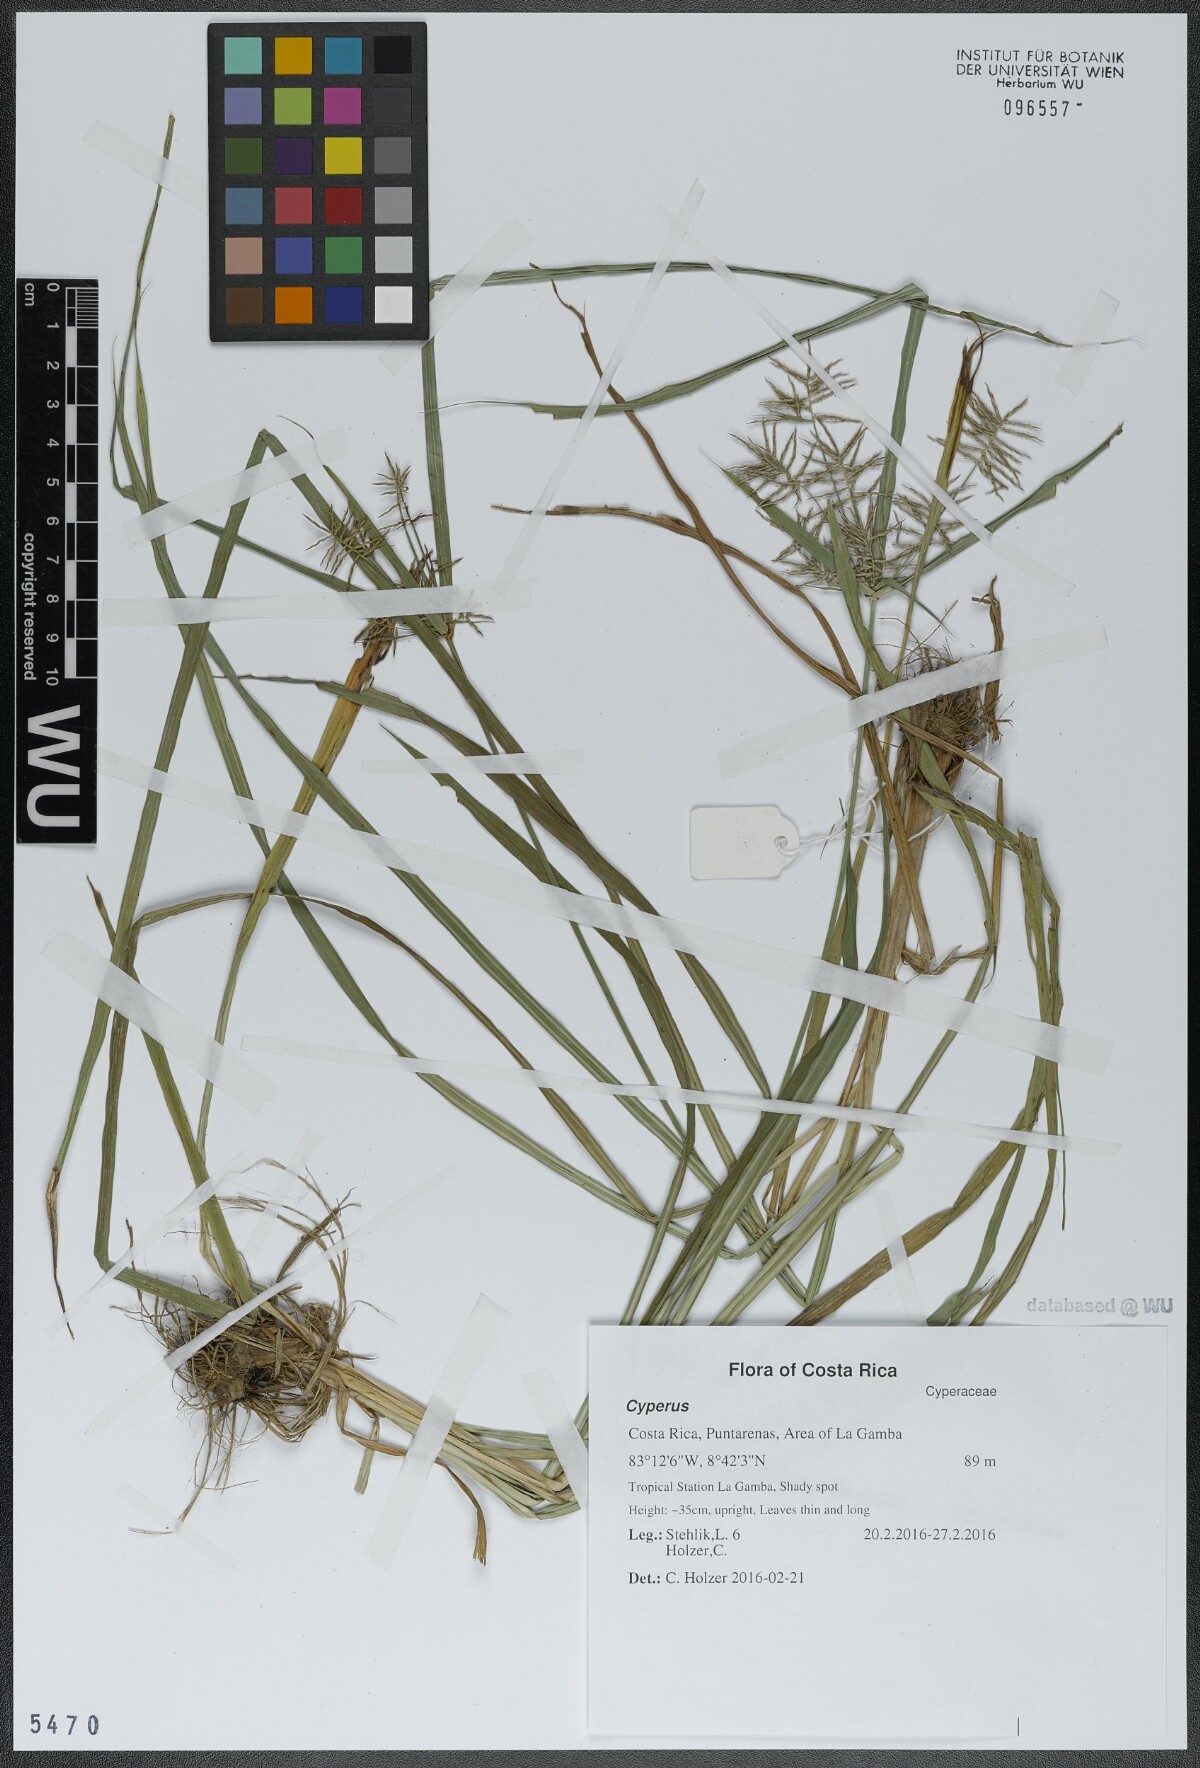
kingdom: Plantae
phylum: Tracheophyta
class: Liliopsida
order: Poales
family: Cyperaceae
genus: Cyperus
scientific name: Cyperus
